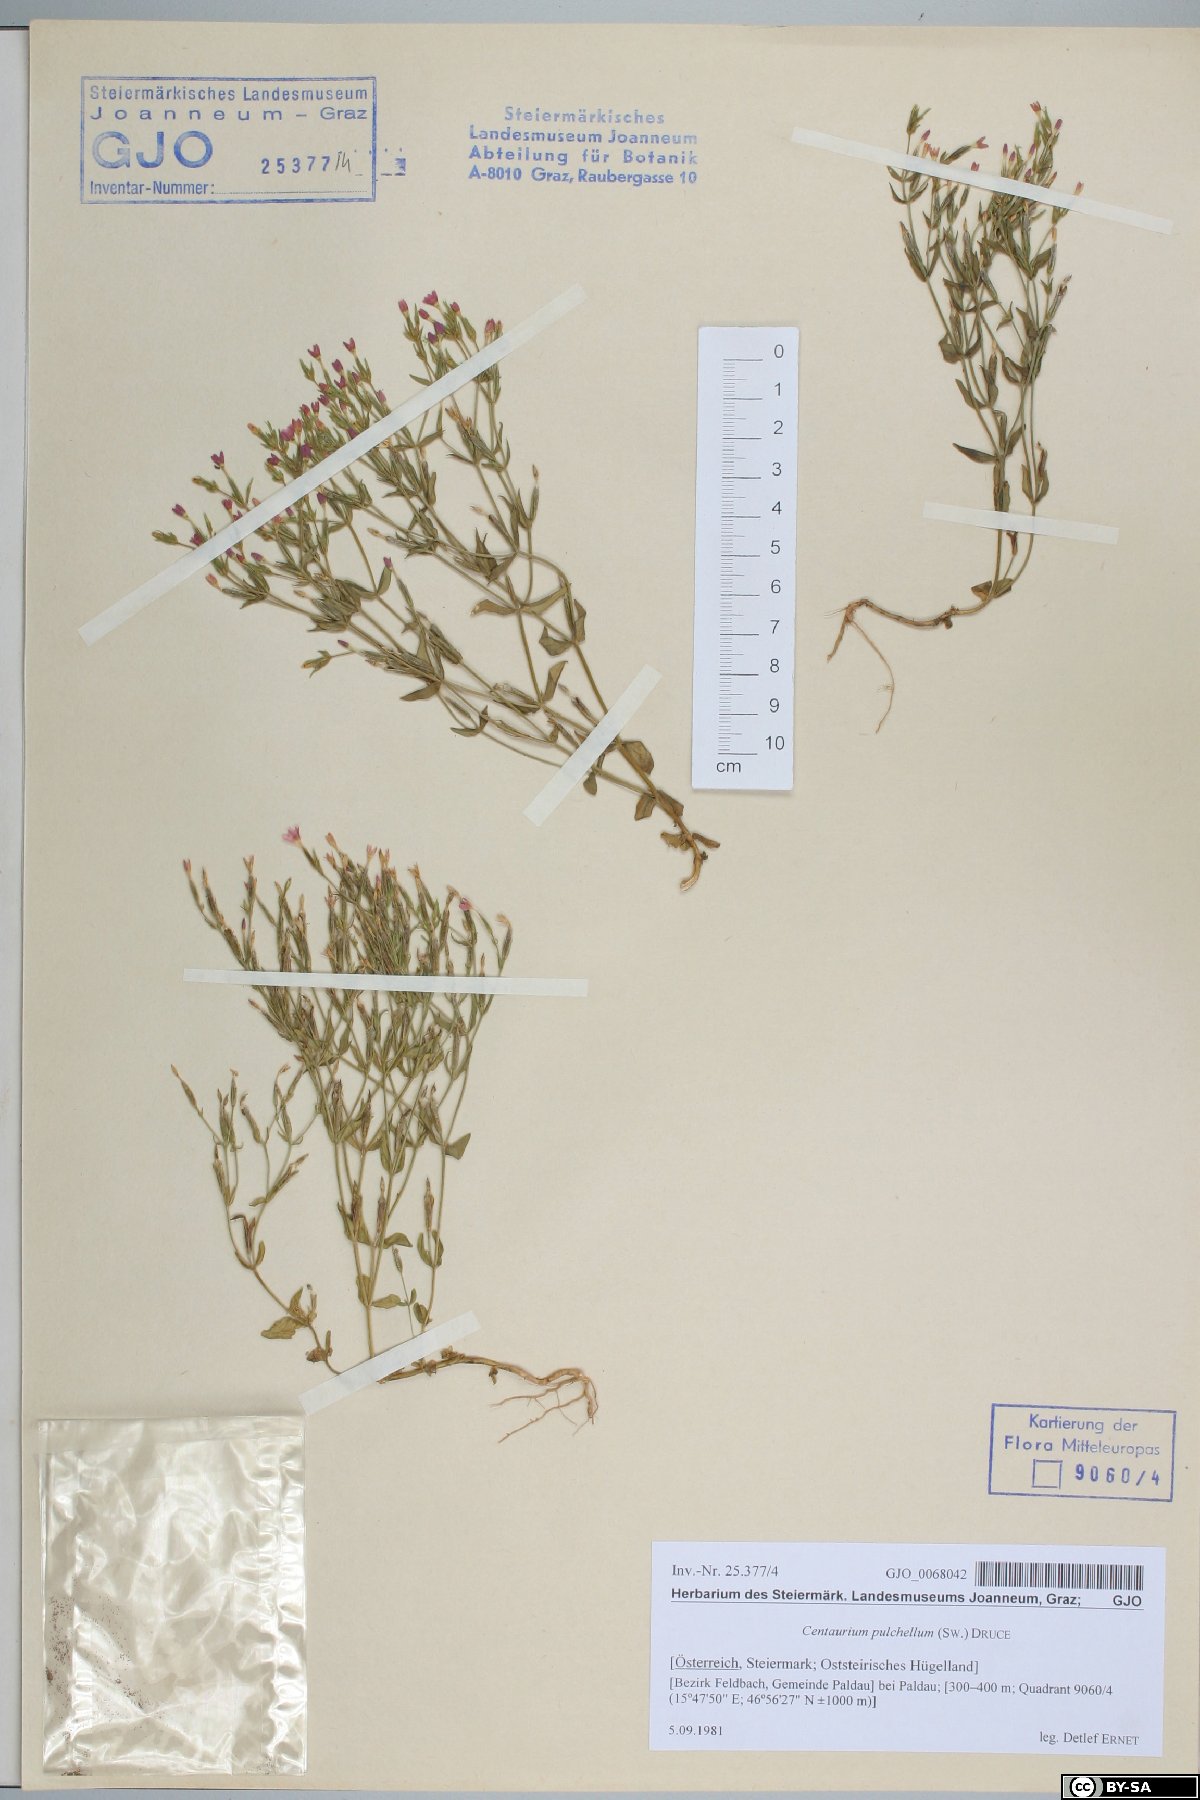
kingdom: Plantae
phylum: Tracheophyta
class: Magnoliopsida
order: Gentianales
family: Gentianaceae
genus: Centaurium
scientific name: Centaurium pulchellum
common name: Lesser centaury
